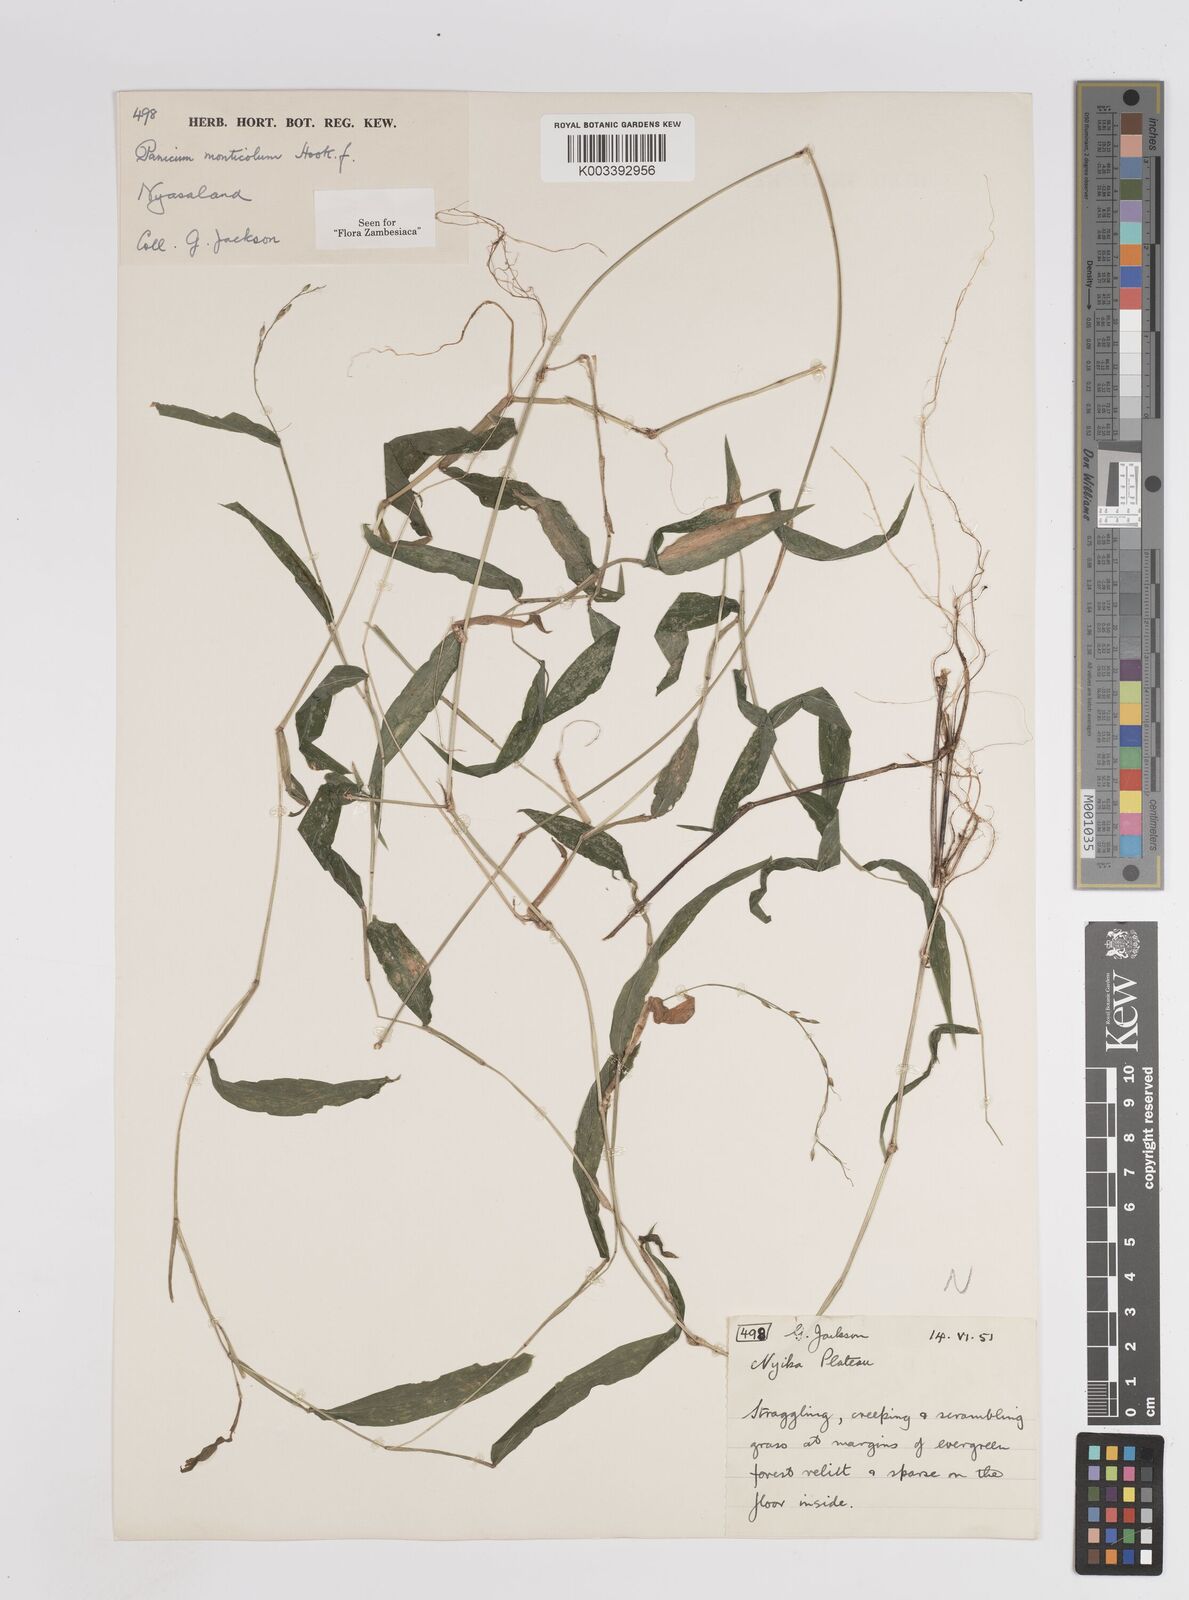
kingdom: Plantae
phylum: Tracheophyta
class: Liliopsida
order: Poales
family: Poaceae
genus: Panicum
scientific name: Panicum monticola
